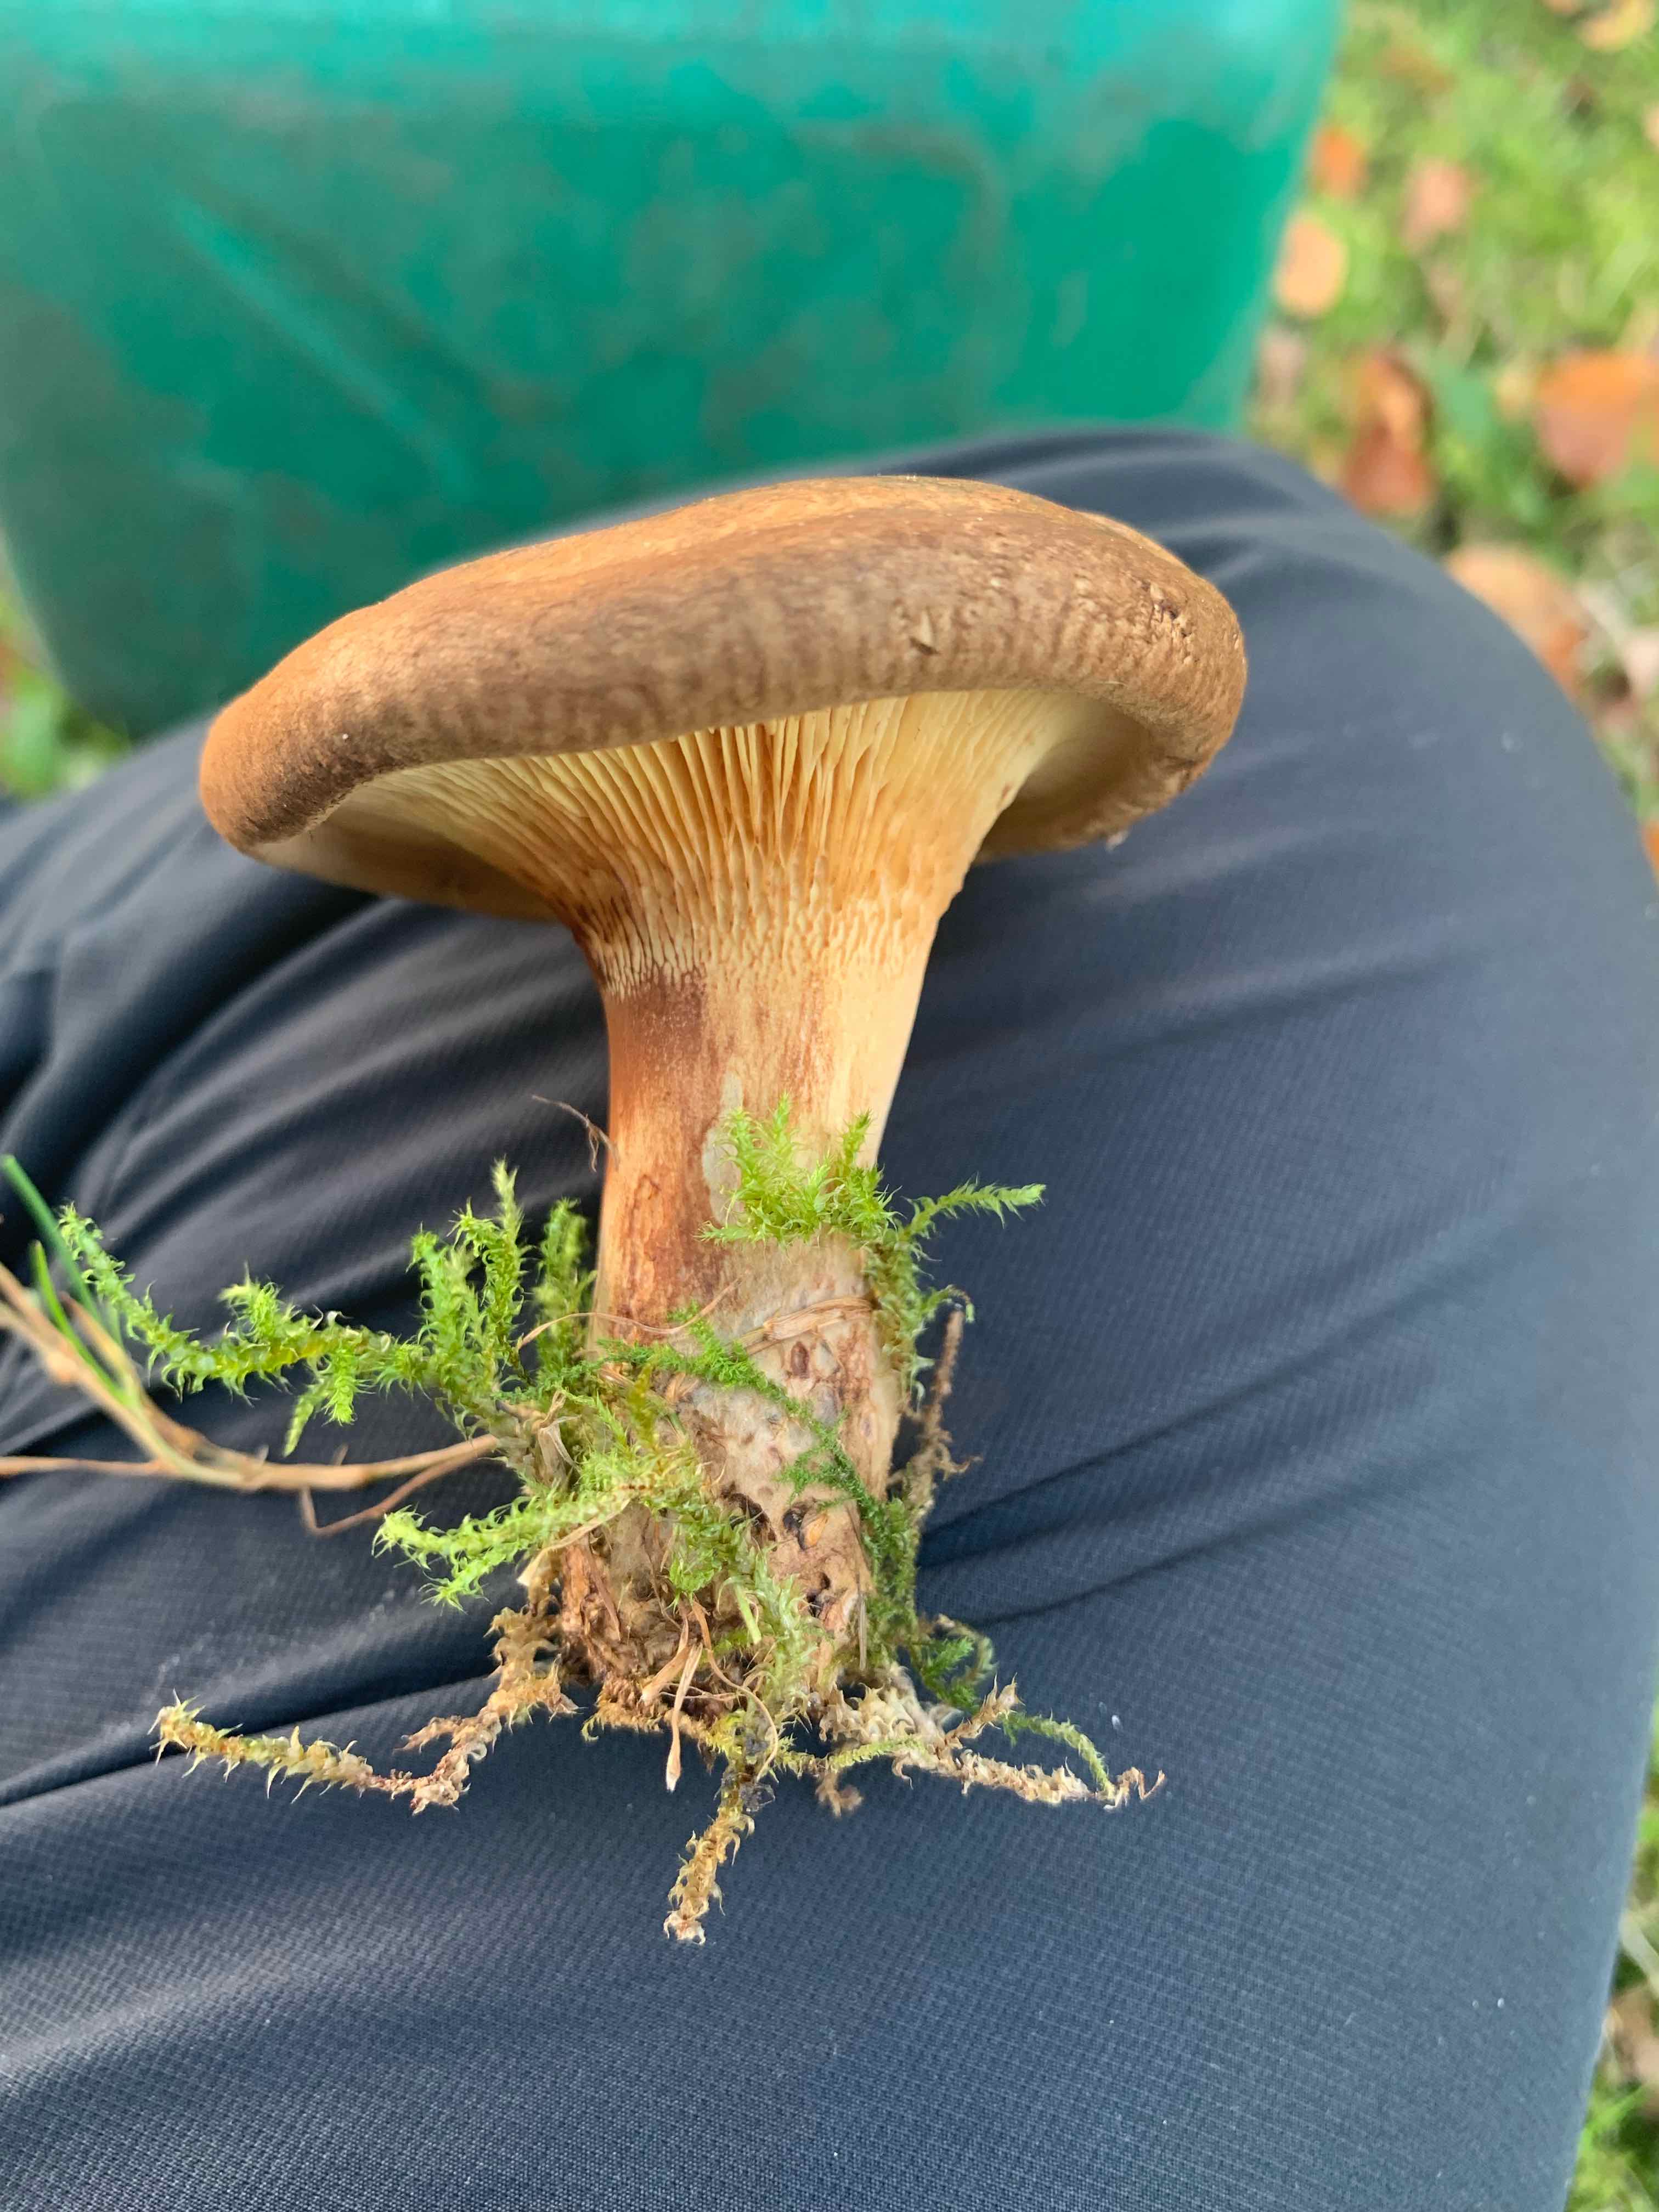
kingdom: Fungi
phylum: Basidiomycota
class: Agaricomycetes
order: Boletales
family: Paxillaceae
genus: Paxillus
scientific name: Paxillus involutus
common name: almindelig netbladhat
